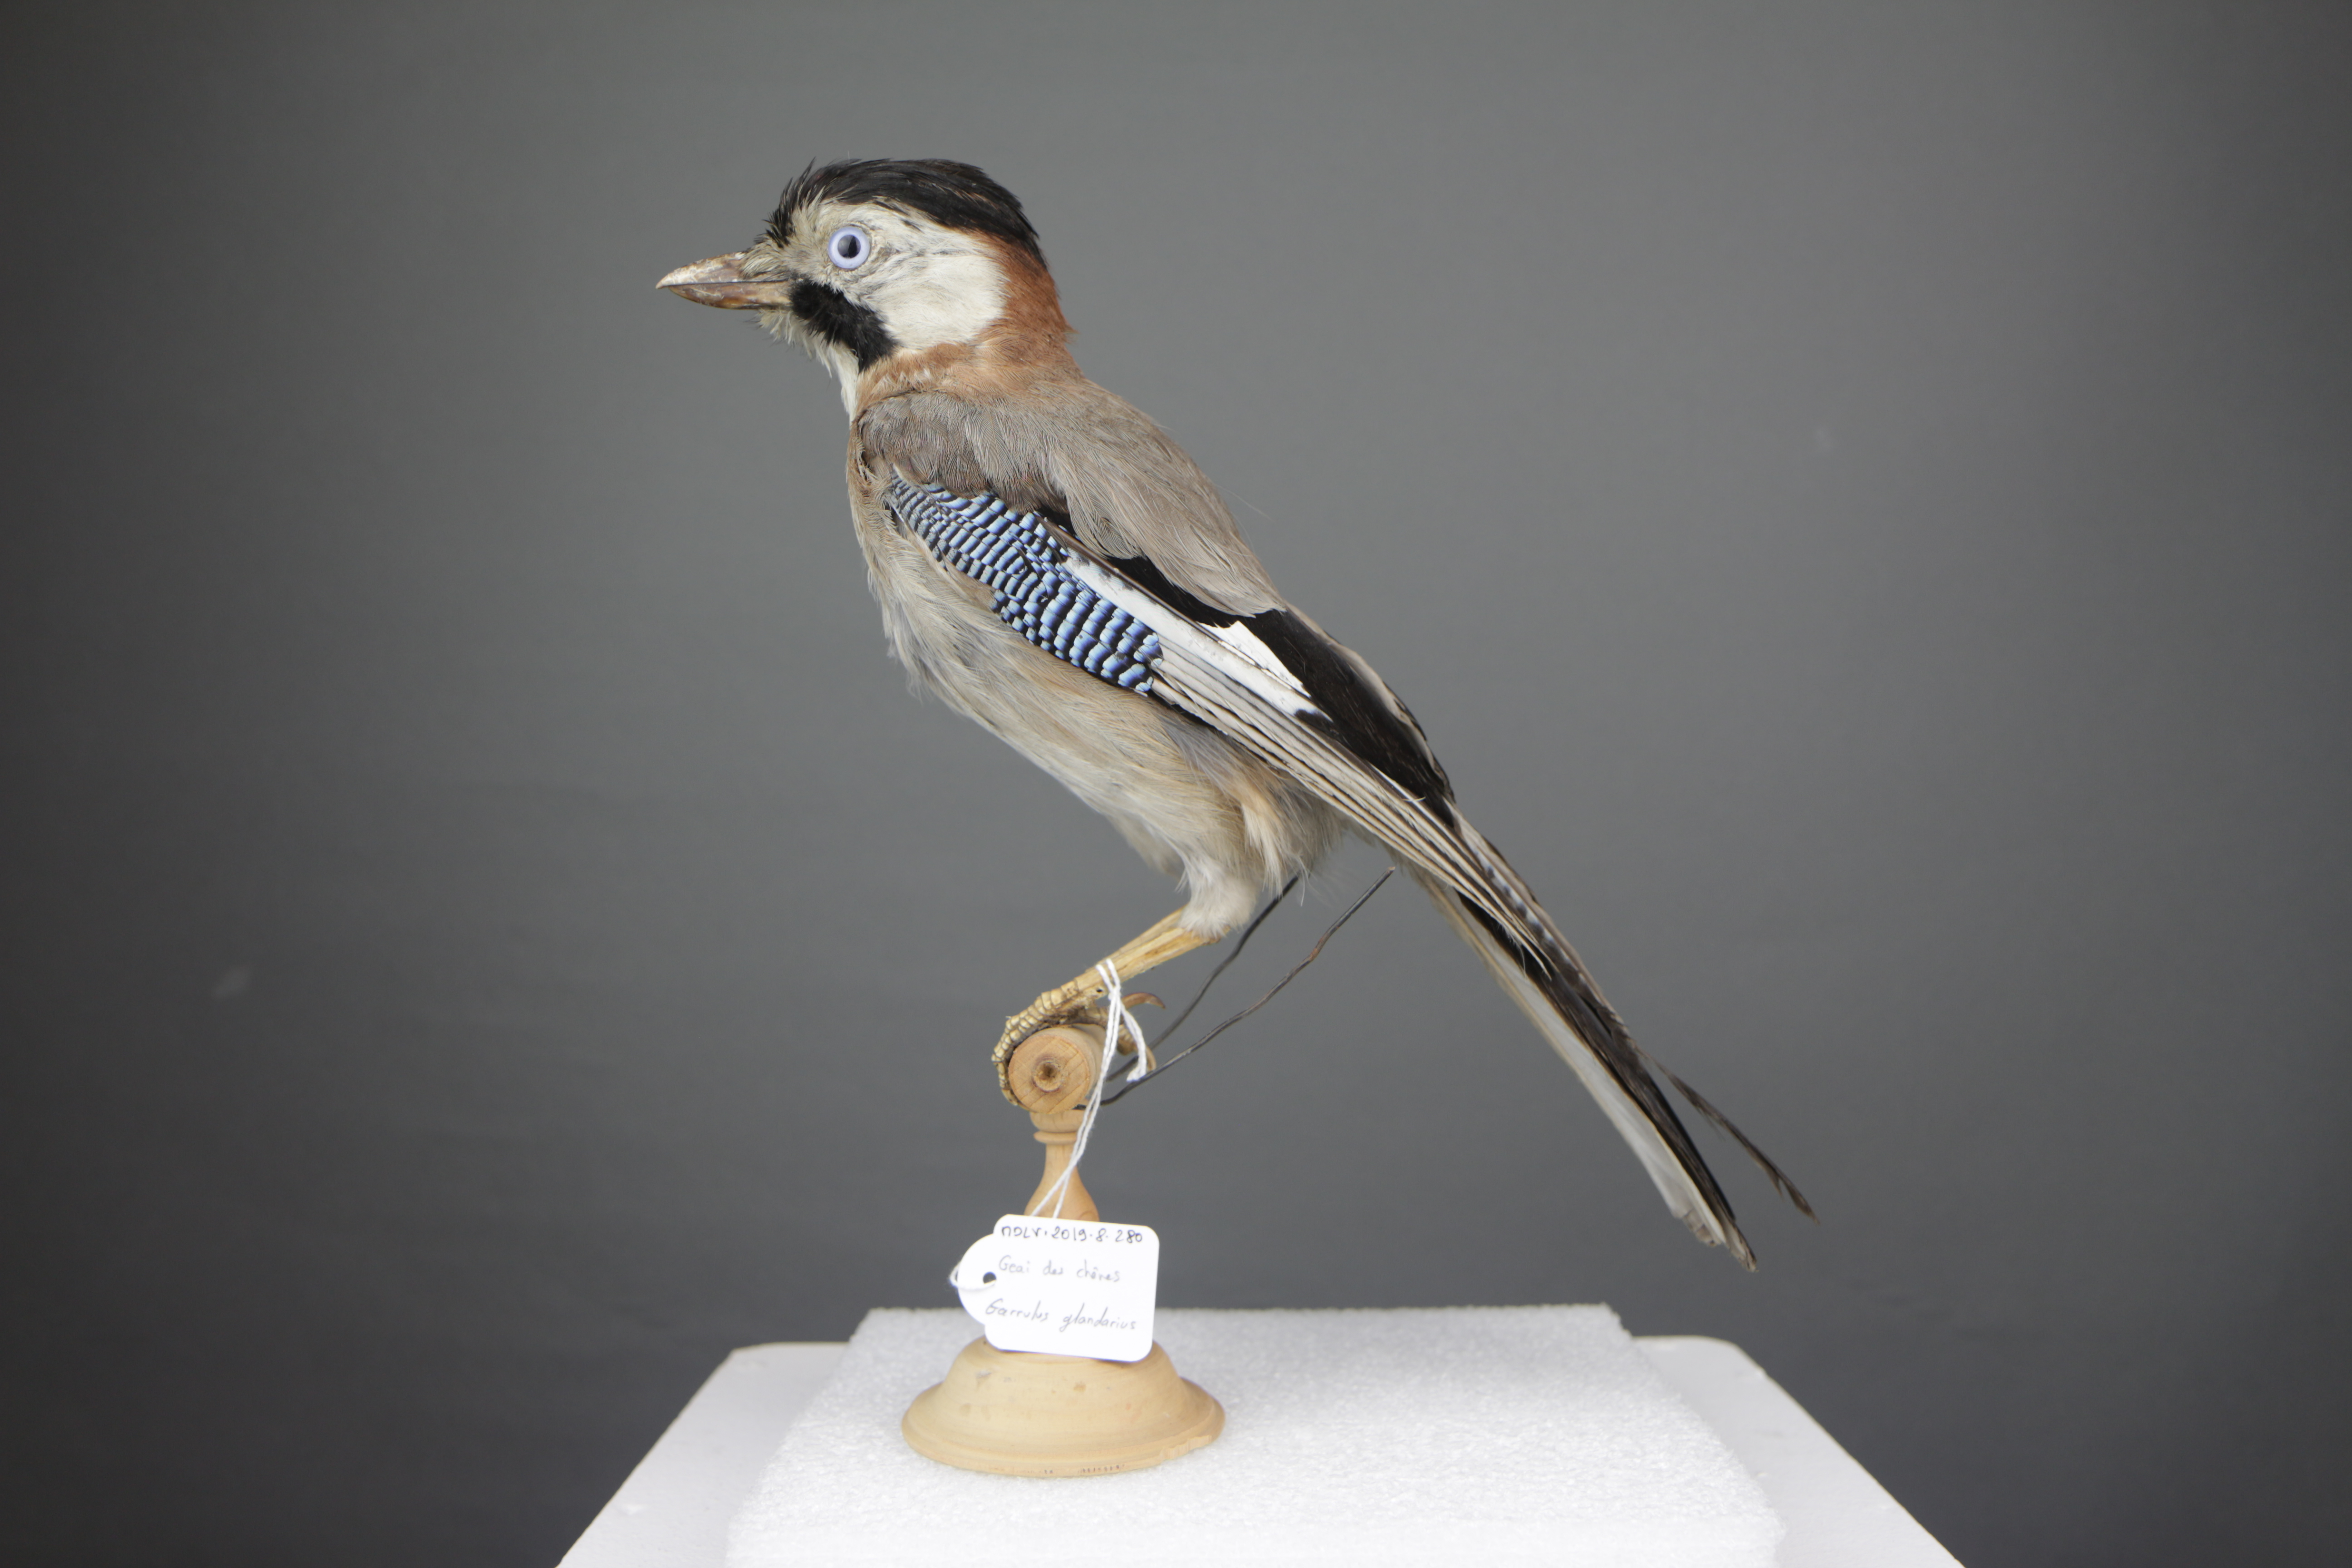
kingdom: Animalia
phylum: Chordata
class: Aves
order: Passeriformes
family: Corvidae
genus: Garrulus
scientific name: Garrulus glandarius
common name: Eurasian jay
